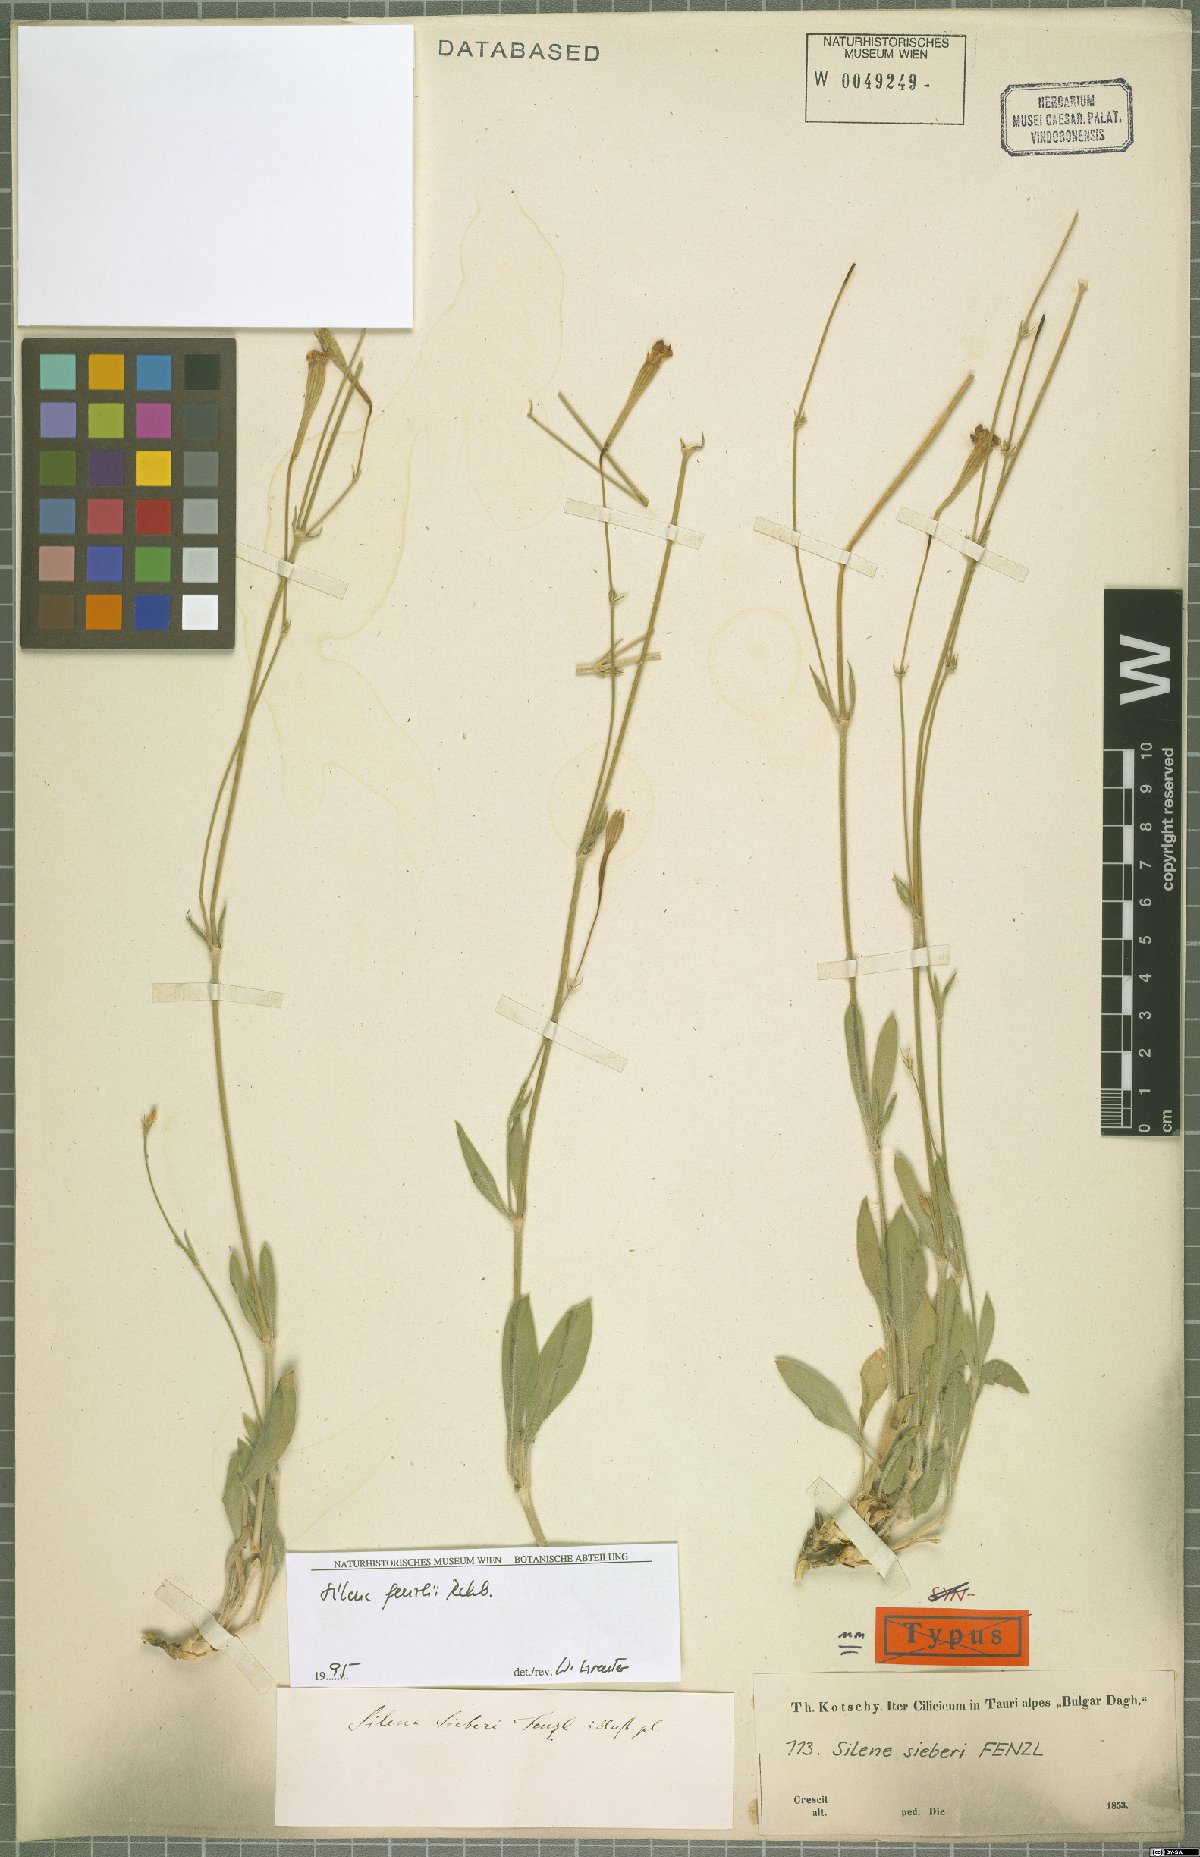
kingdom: Plantae
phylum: Tracheophyta
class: Magnoliopsida
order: Caryophyllales
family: Caryophyllaceae
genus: Silene
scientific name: Silene fenzlii
